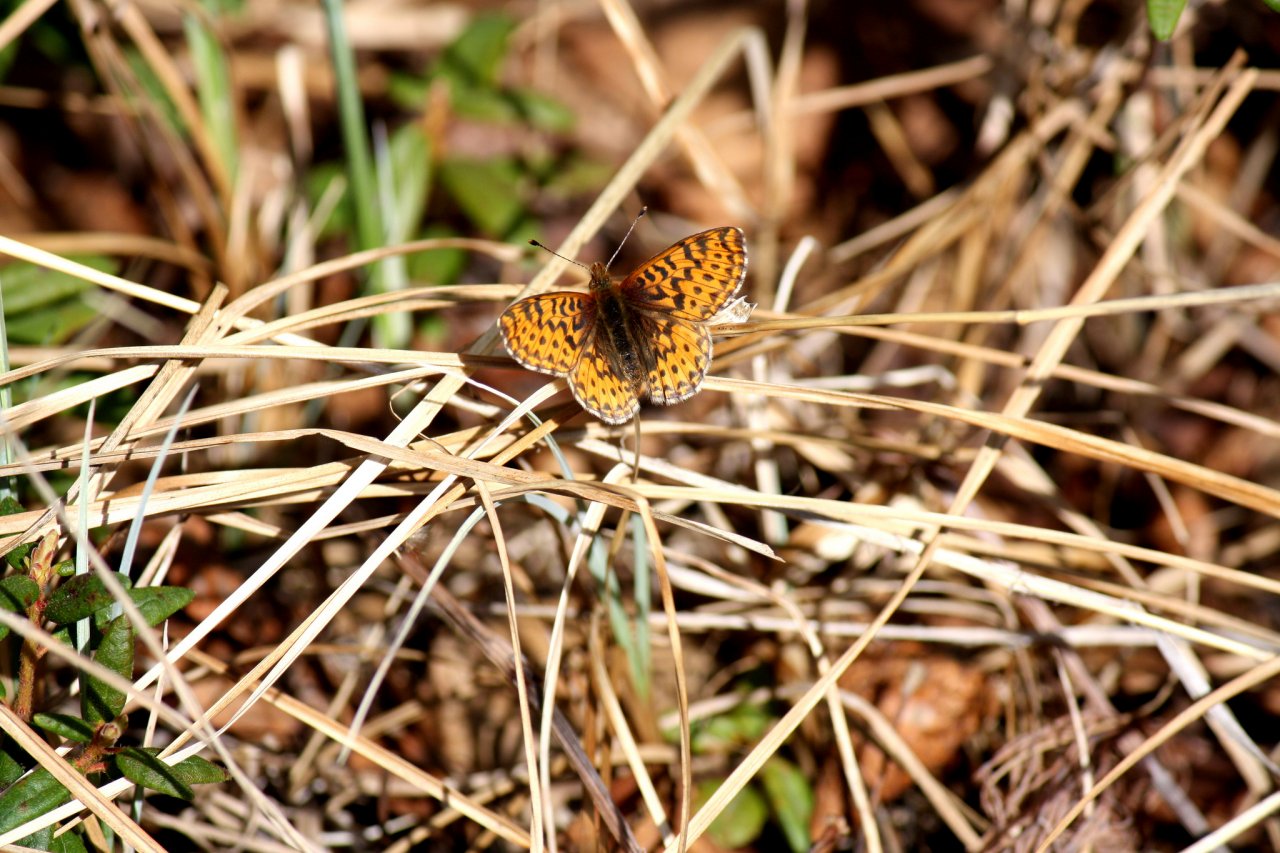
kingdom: Animalia
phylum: Arthropoda
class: Insecta
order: Lepidoptera
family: Nymphalidae
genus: Boloria
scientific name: Boloria freija
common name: Freija Fritillary
